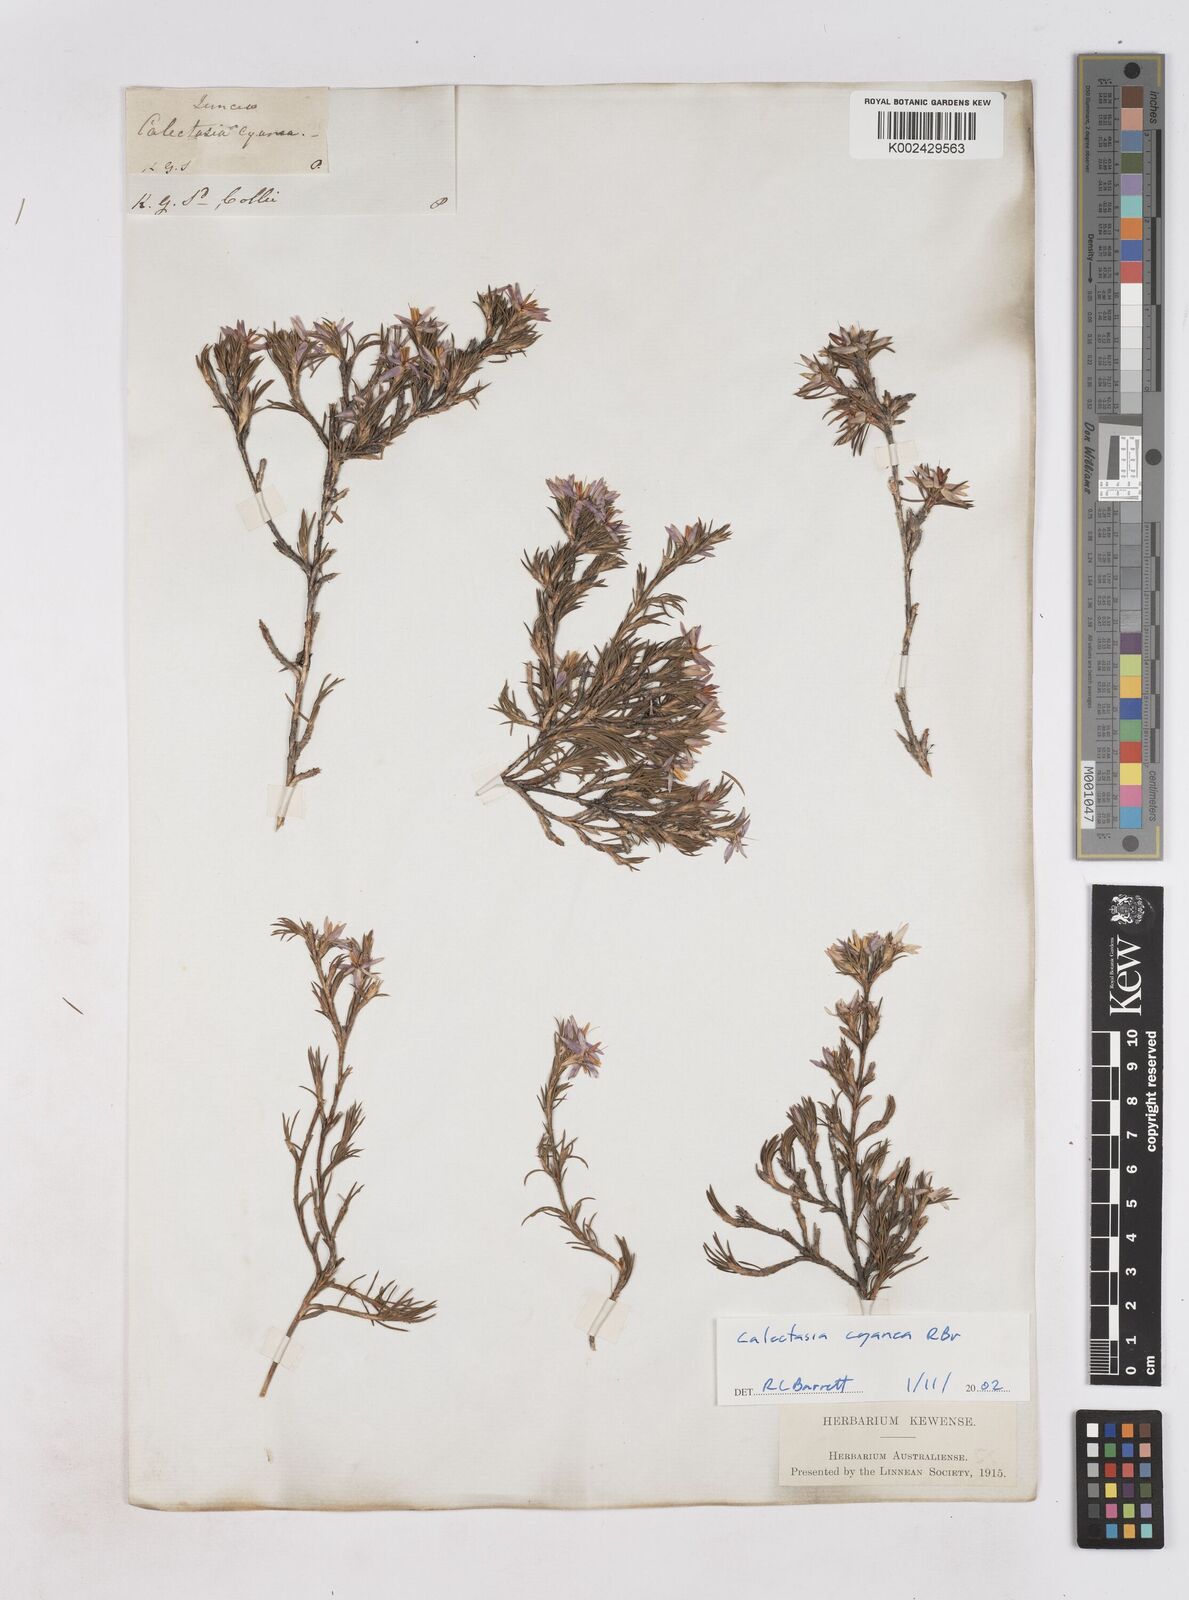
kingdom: Plantae
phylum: Tracheophyta
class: Liliopsida
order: Arecales
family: Dasypogonaceae
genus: Calectasia
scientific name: Calectasia cyanea
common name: Blue tinsel-lily
